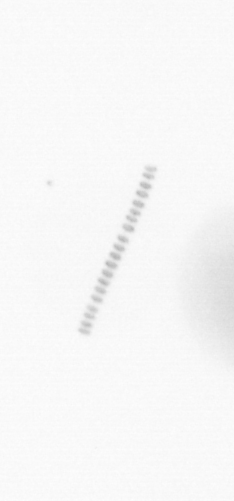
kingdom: Chromista
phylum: Ochrophyta
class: Bacillariophyceae
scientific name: Bacillariophyceae
